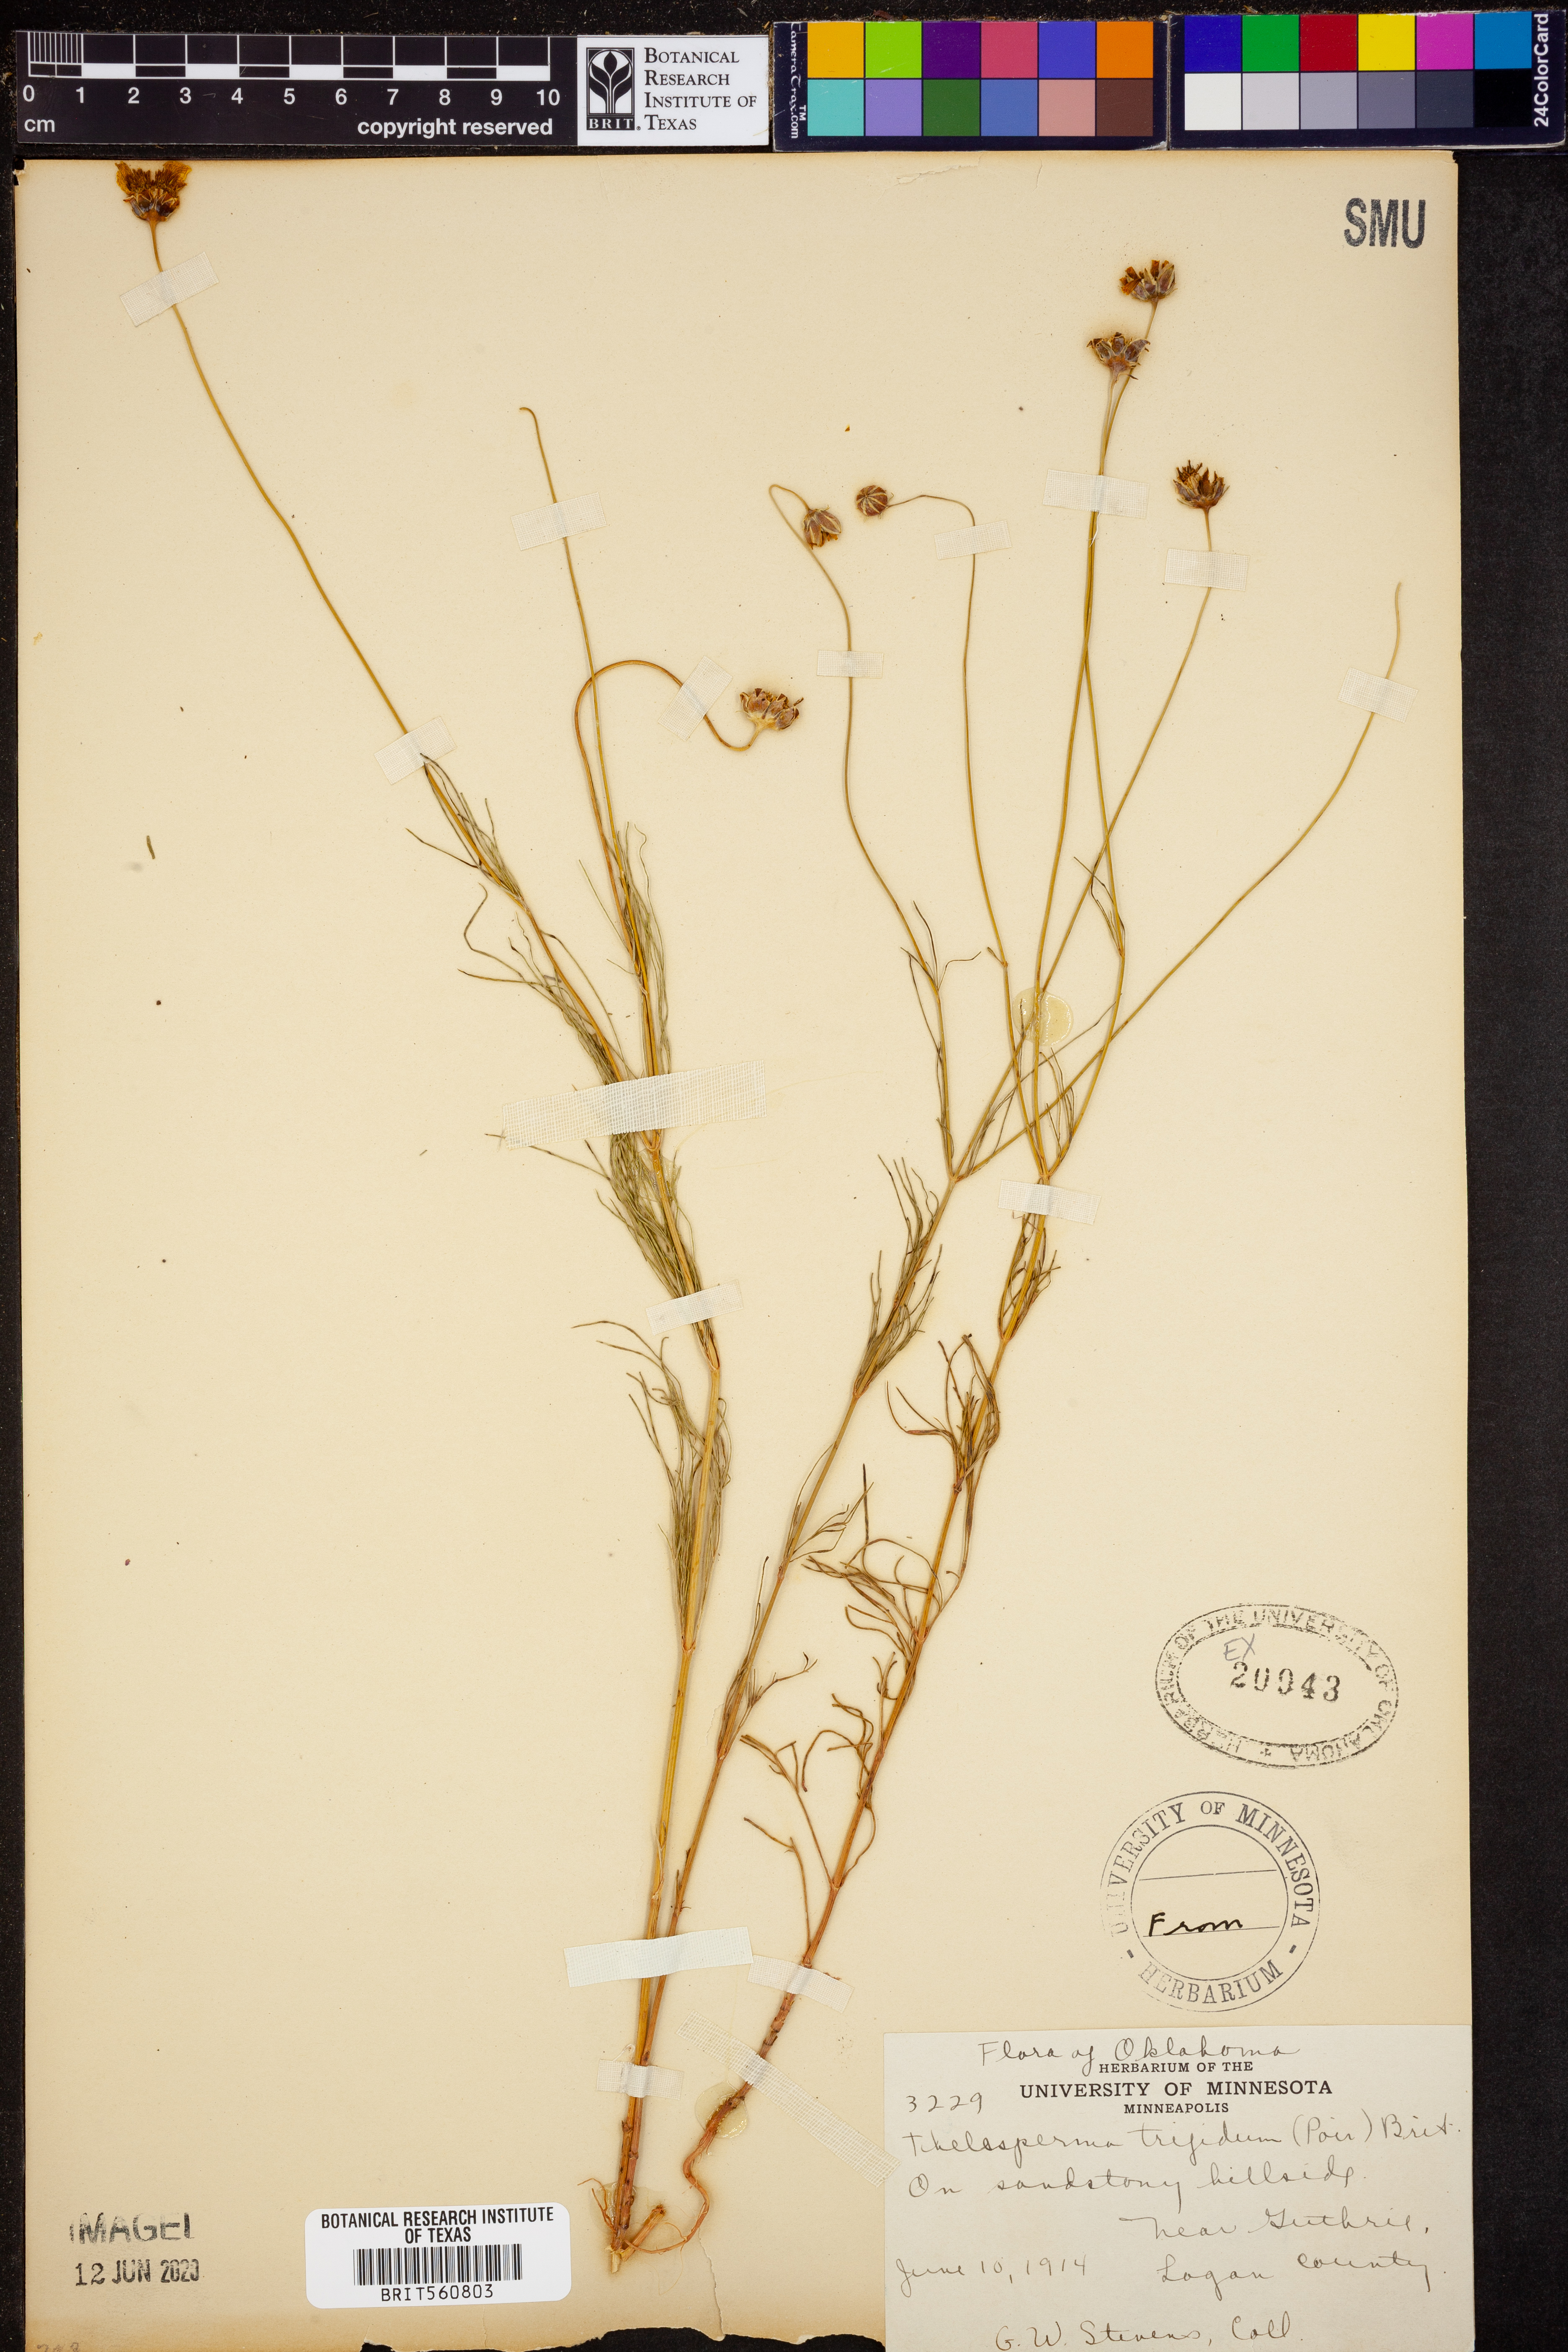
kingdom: Plantae
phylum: Tracheophyta
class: Magnoliopsida
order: Asterales
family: Asteraceae
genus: Thelesperma
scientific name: Thelesperma filifolium
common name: Stiff greenthread
